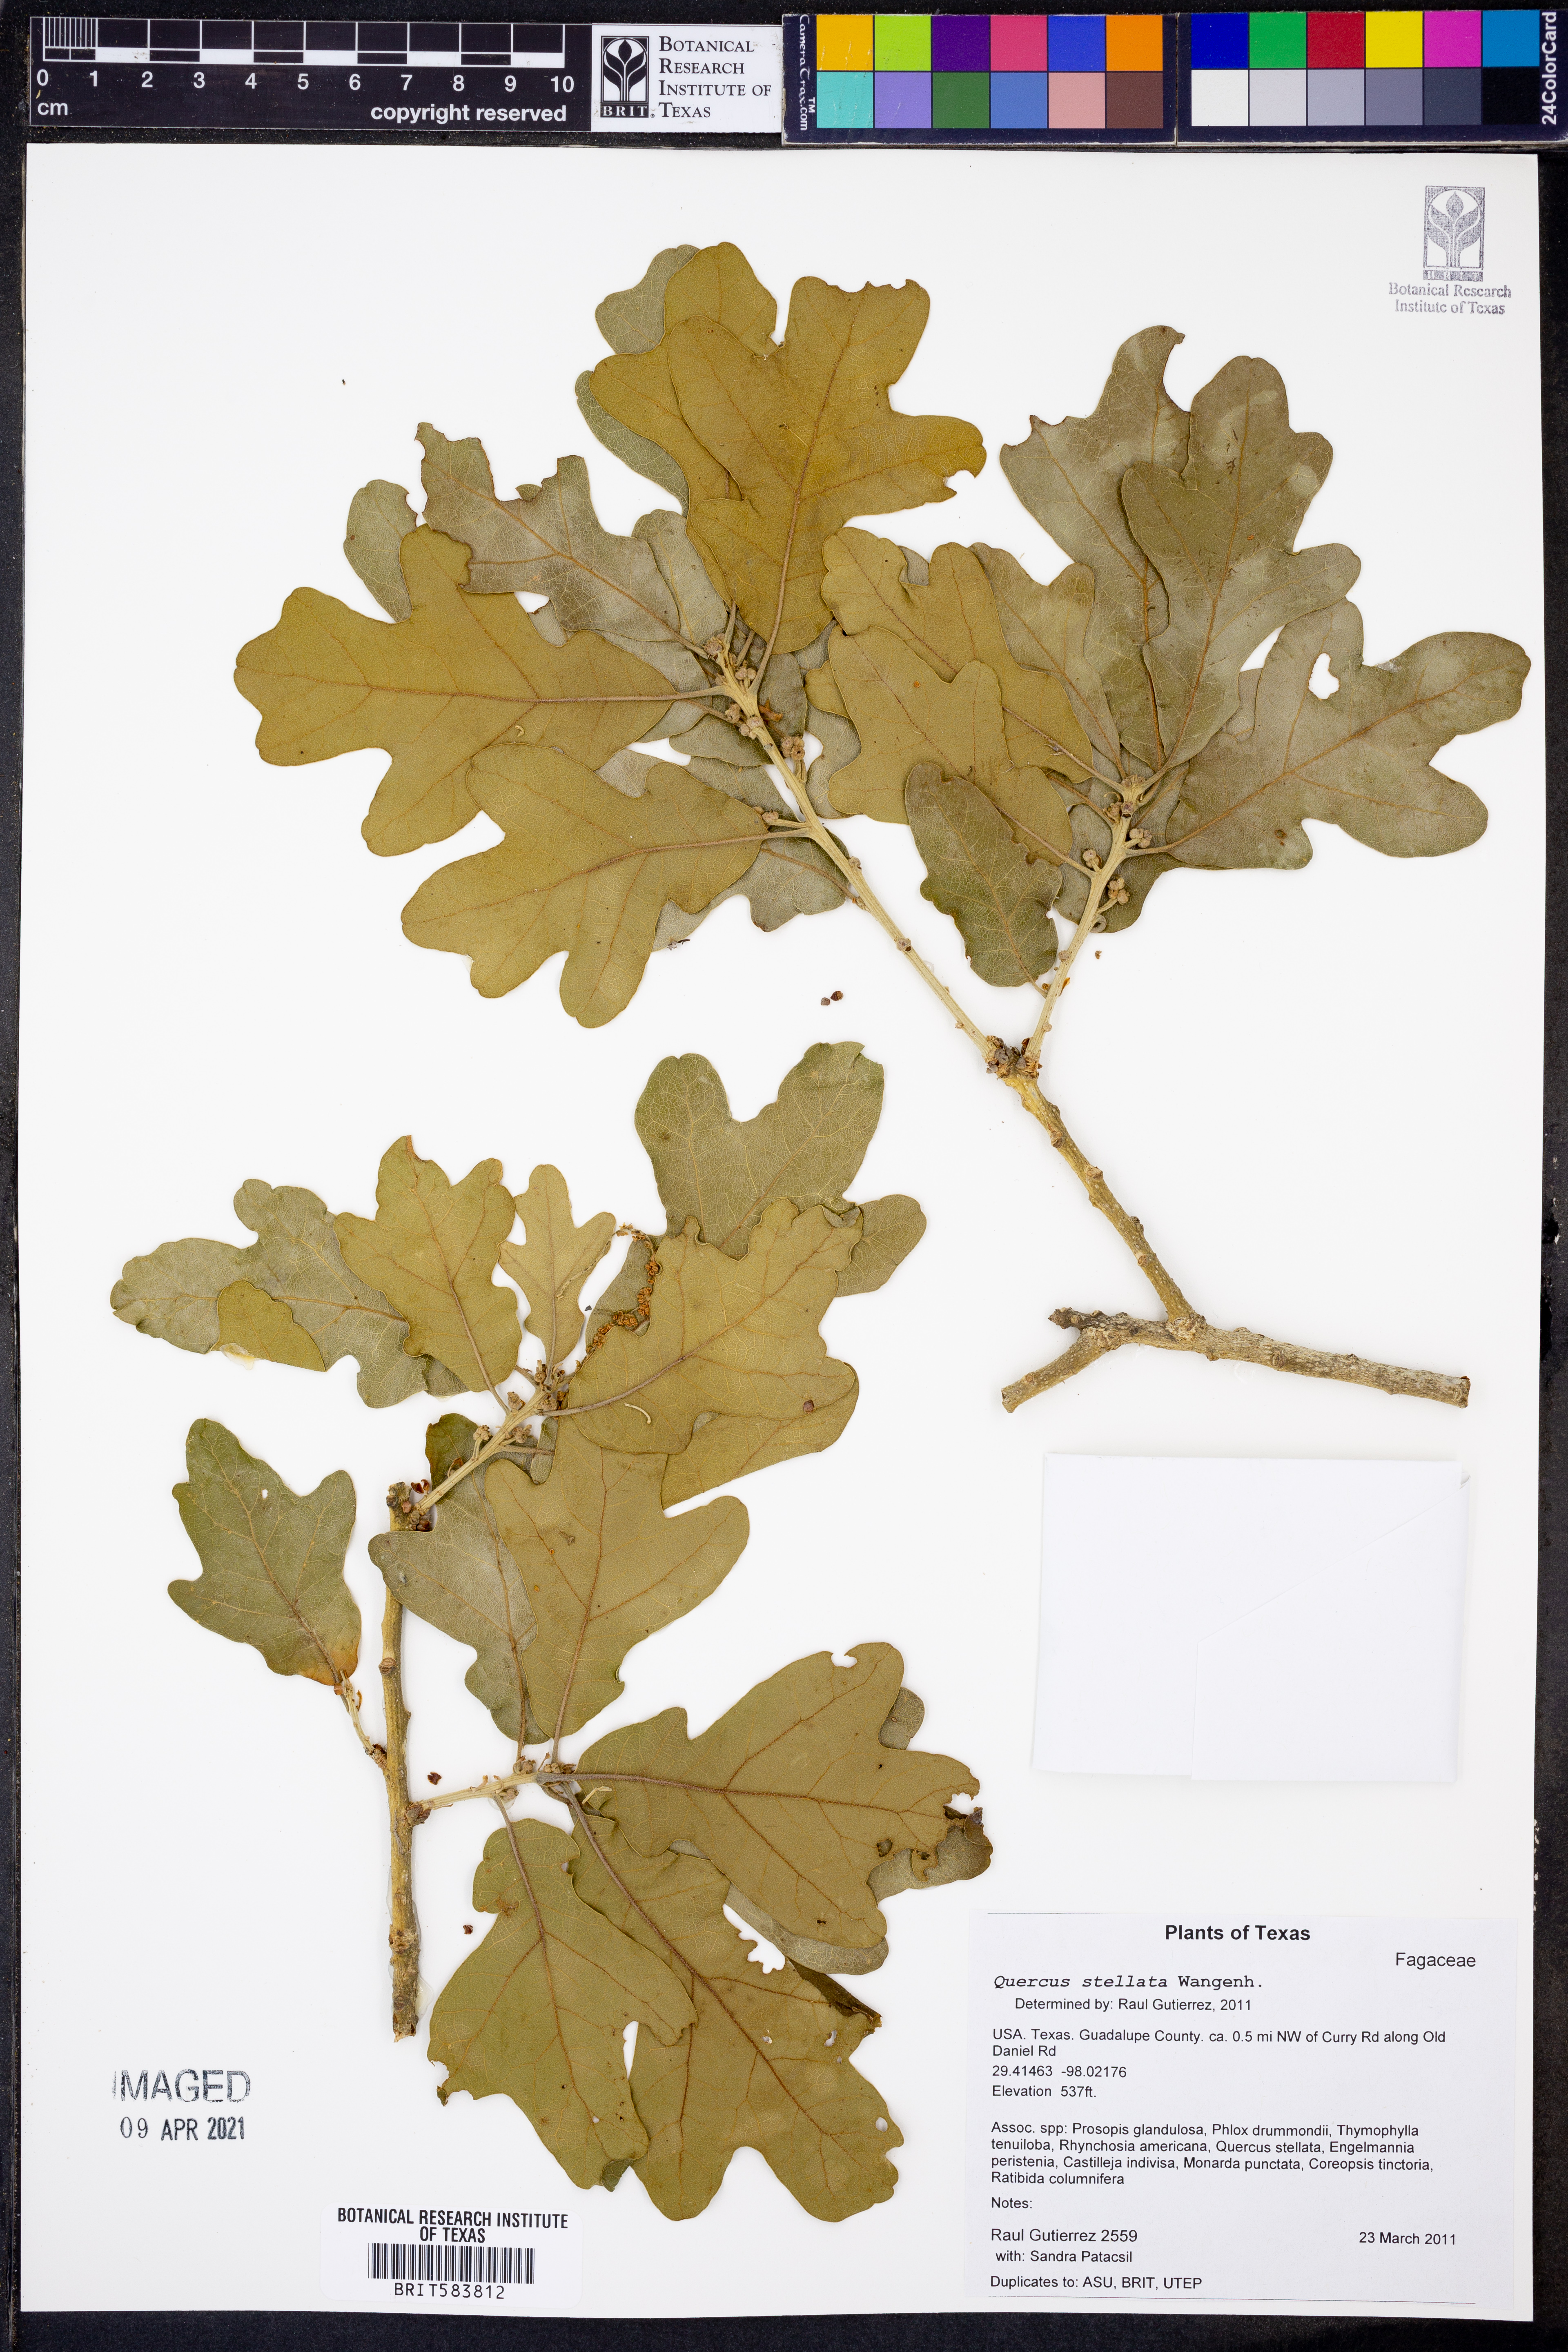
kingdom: Plantae
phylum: Tracheophyta
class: Magnoliopsida
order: Fagales
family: Fagaceae
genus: Quercus
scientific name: Quercus stellata
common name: Post oak
